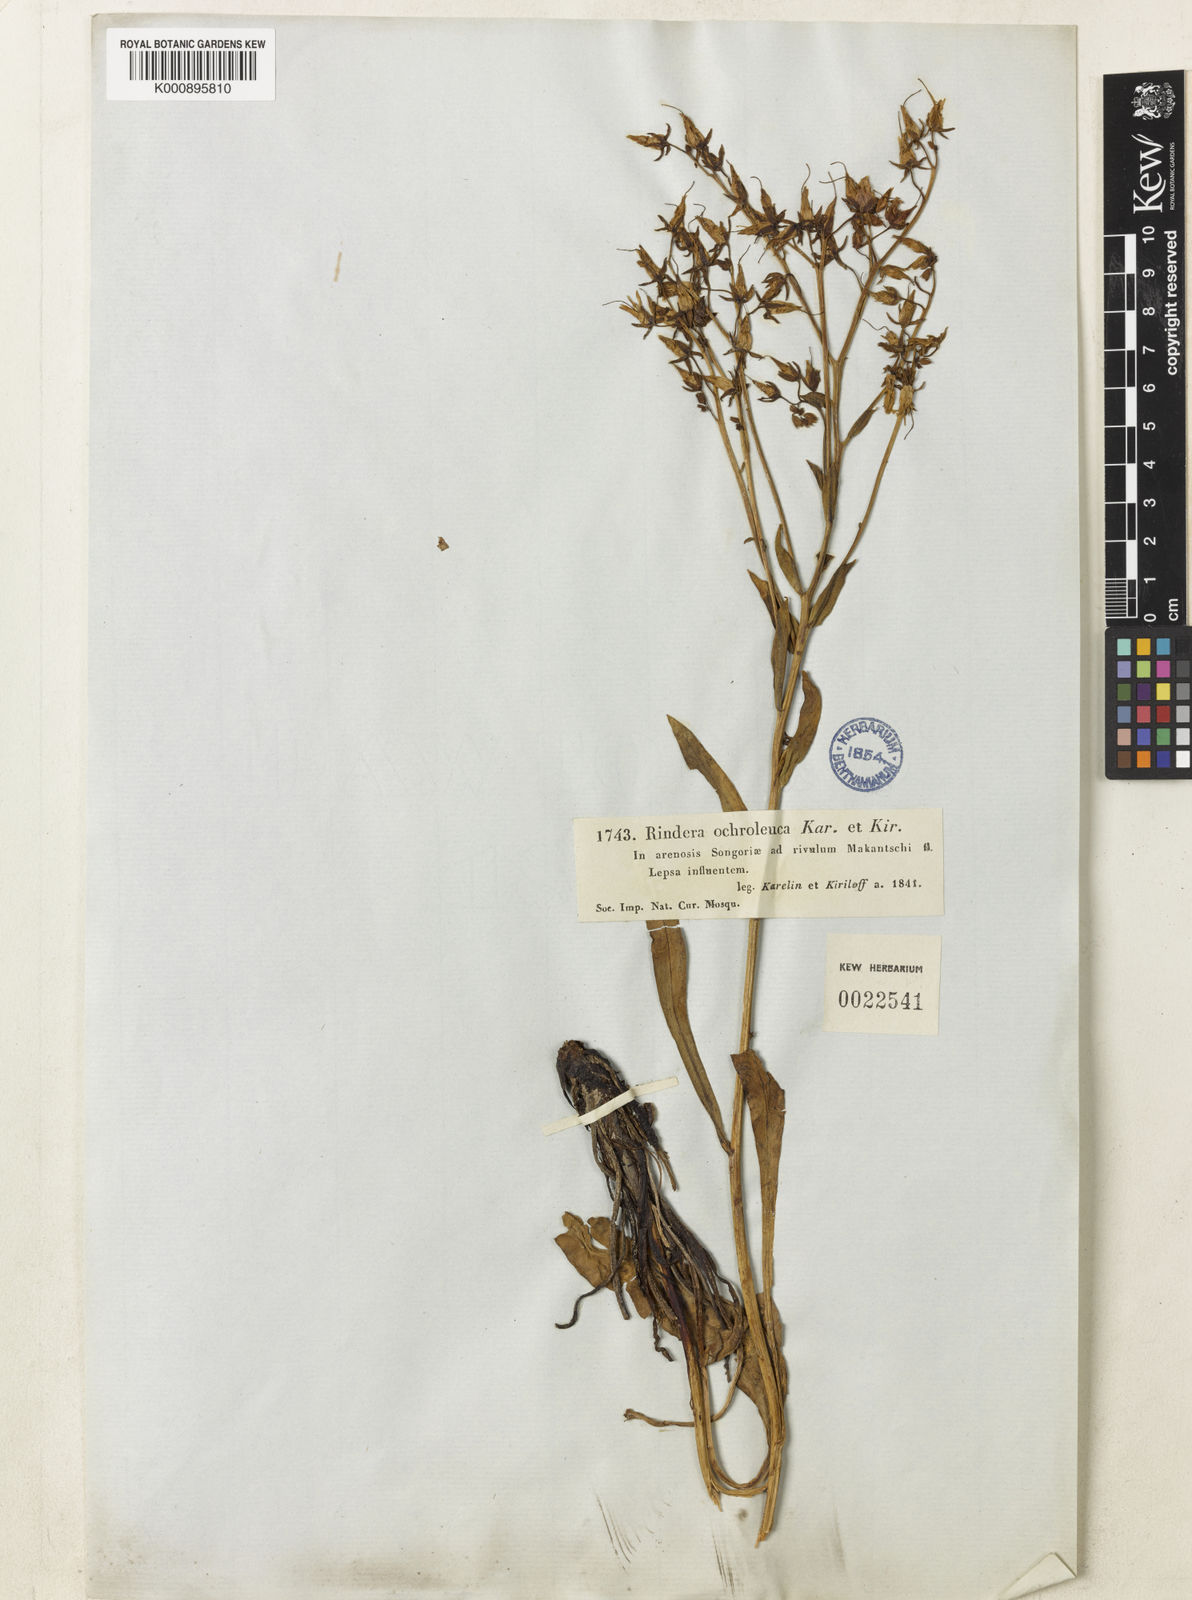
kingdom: Plantae
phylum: Tracheophyta
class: Magnoliopsida
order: Boraginales
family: Boraginaceae
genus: Rindera
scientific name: Rindera ochroleuca
